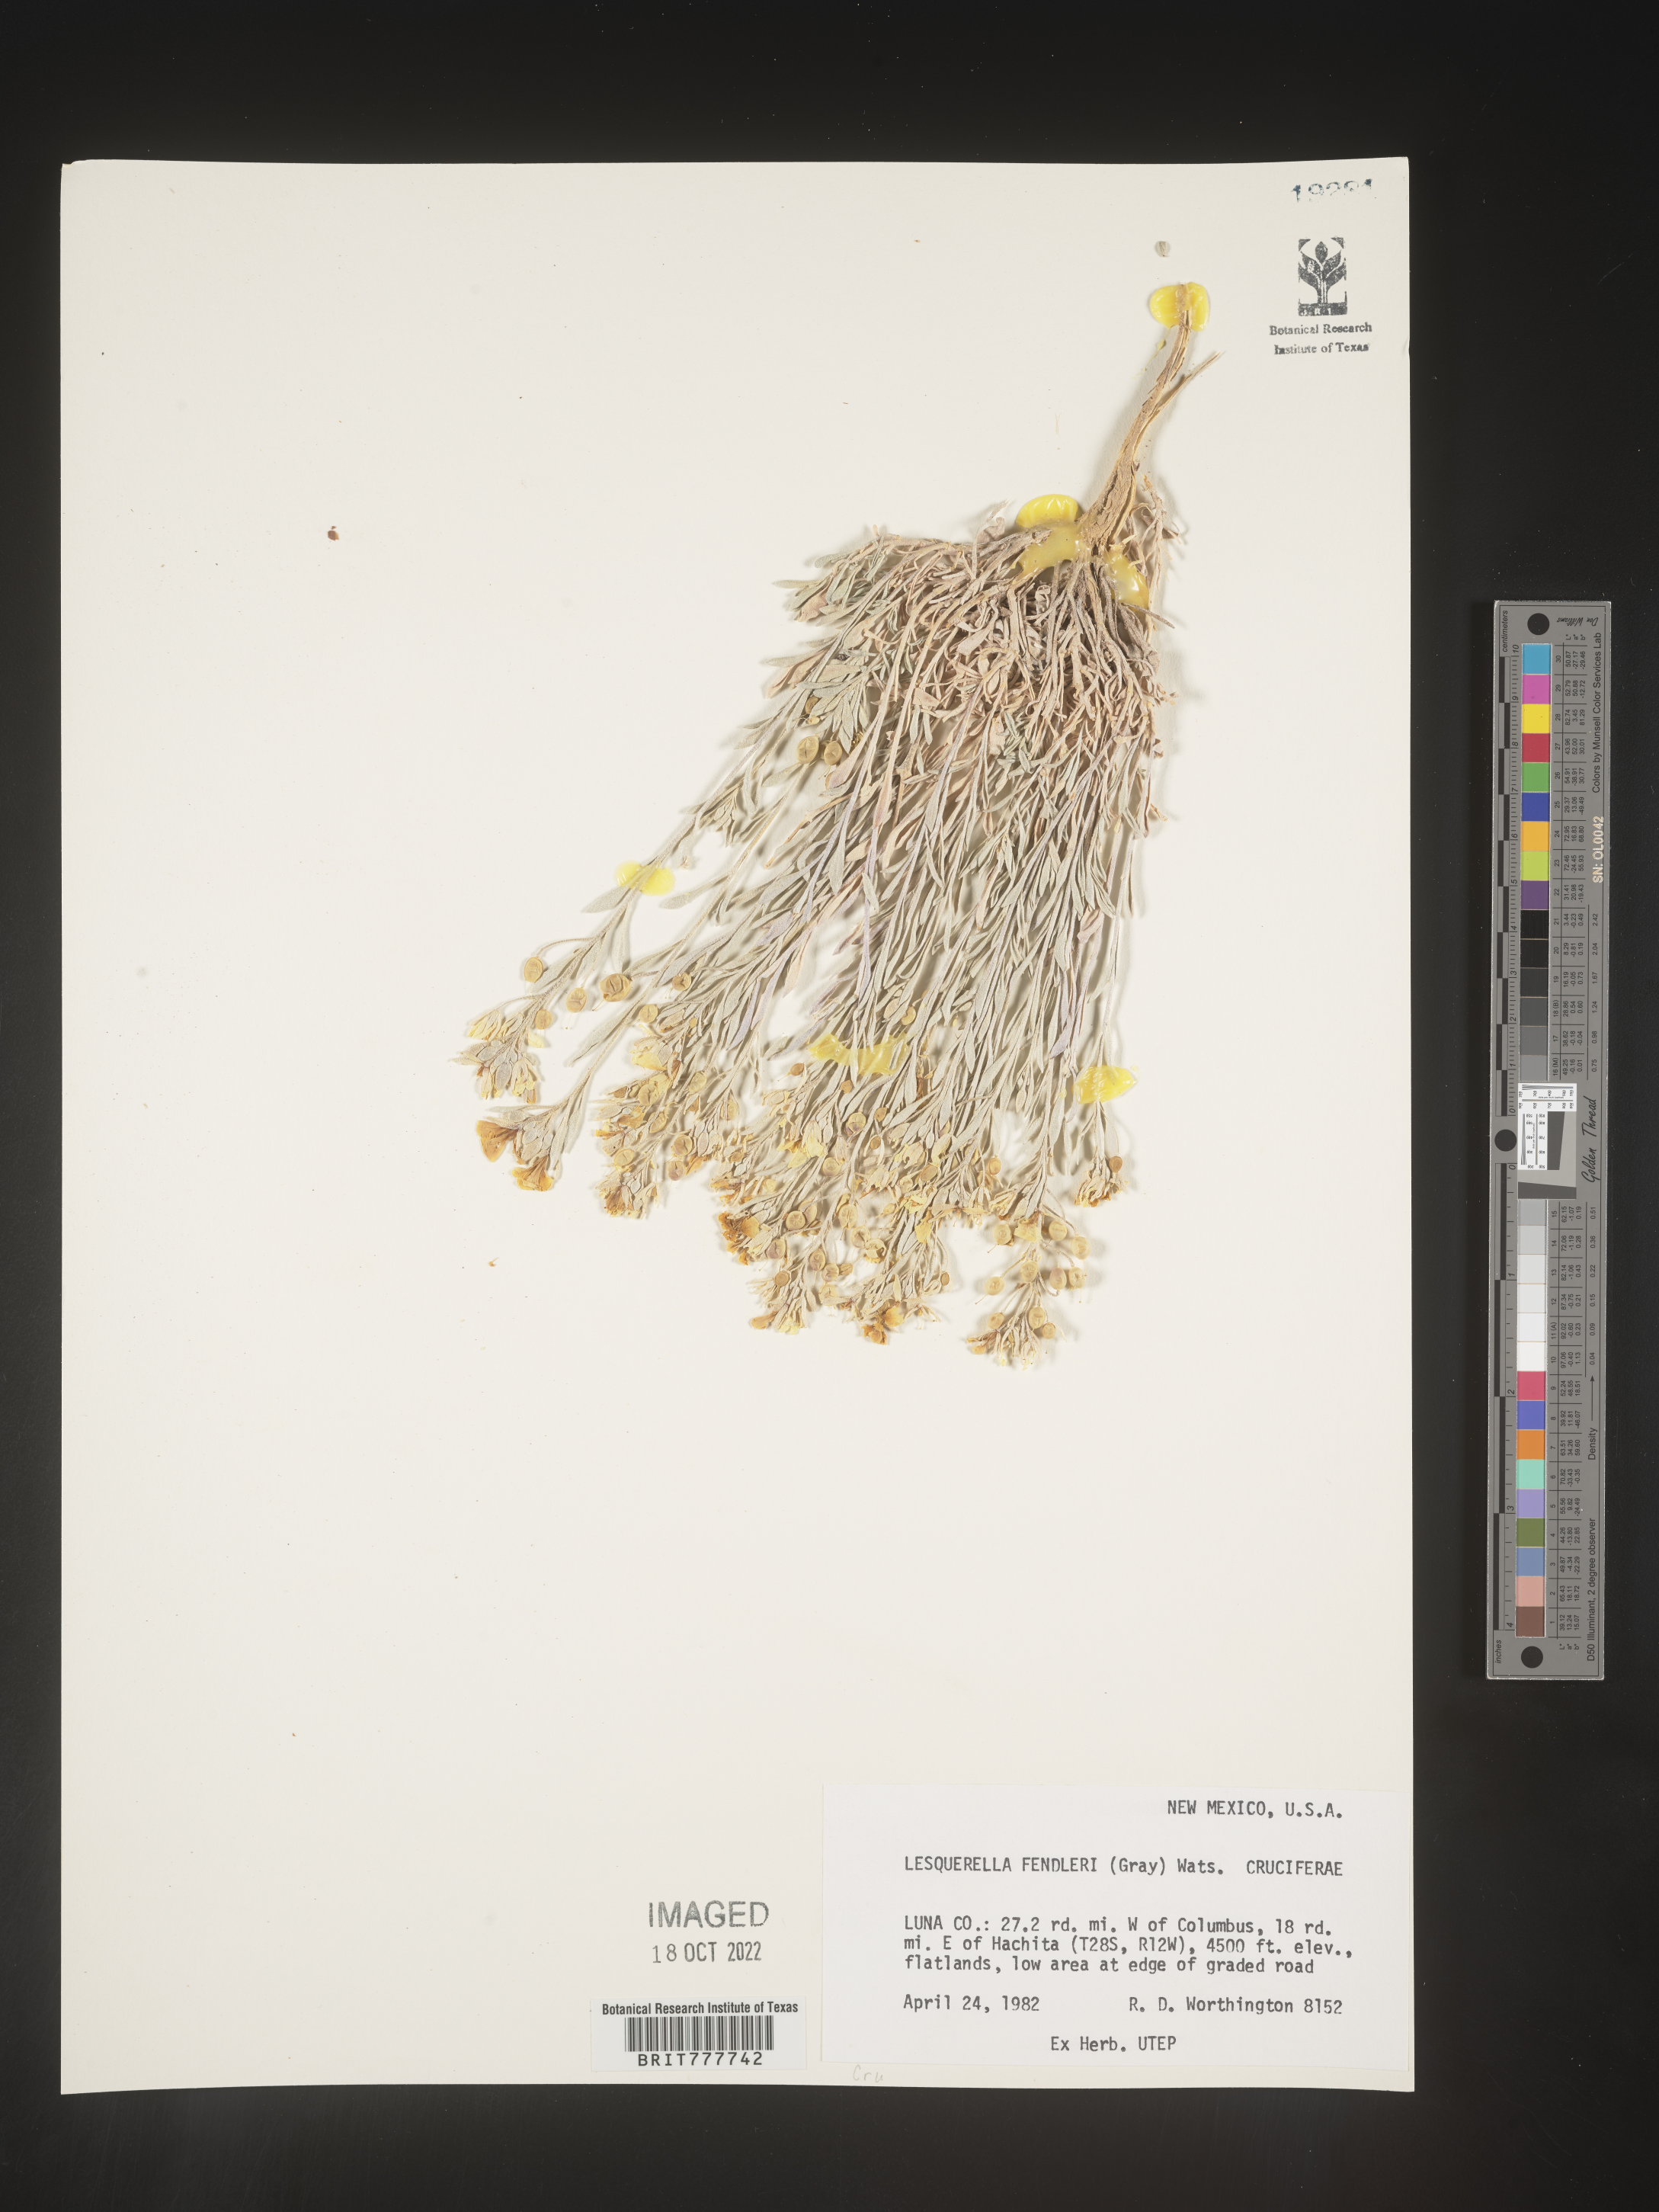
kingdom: Plantae
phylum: Tracheophyta
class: Magnoliopsida
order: Brassicales
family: Brassicaceae
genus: Physaria
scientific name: Physaria fendleri
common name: Fendler's bladderpod
